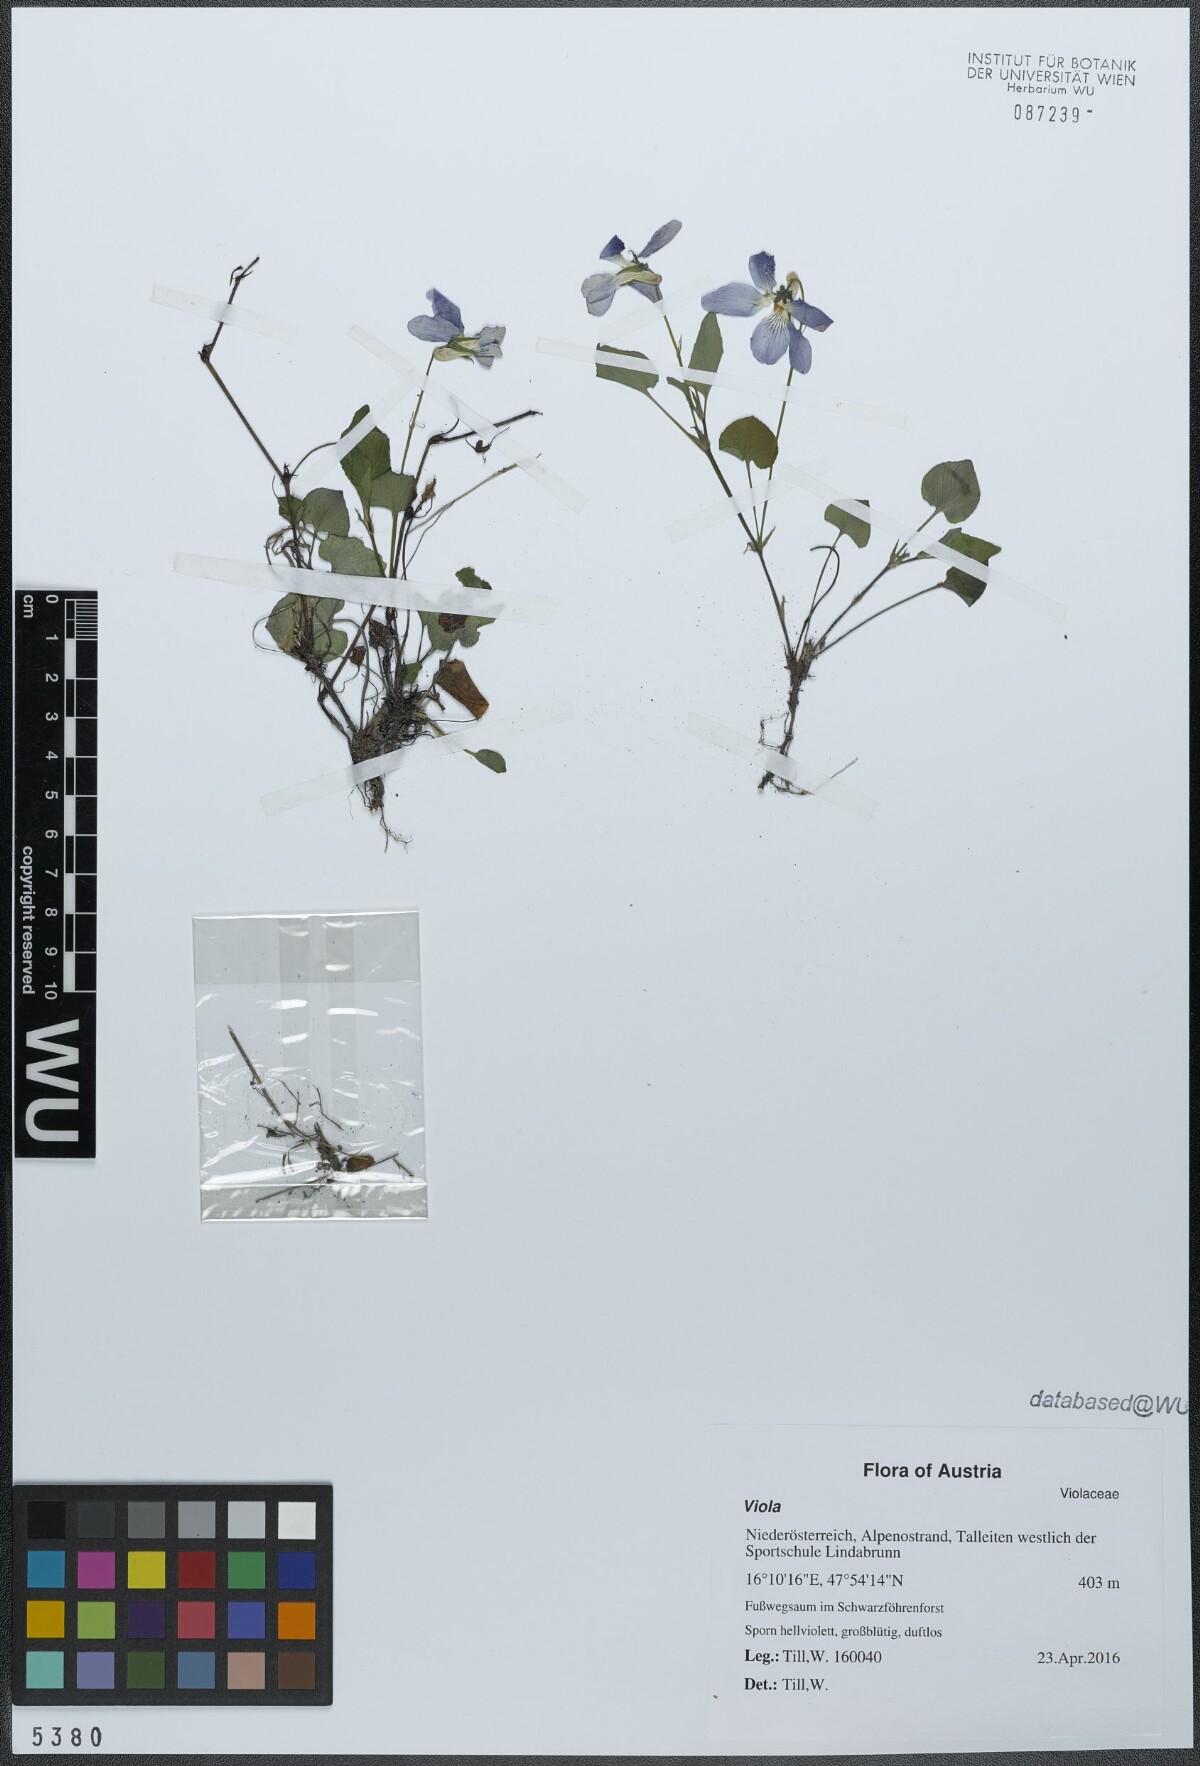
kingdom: Plantae
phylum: Tracheophyta
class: Magnoliopsida
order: Malpighiales
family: Violaceae
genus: Viola
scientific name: Viola riviniana
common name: Common dog-violet
